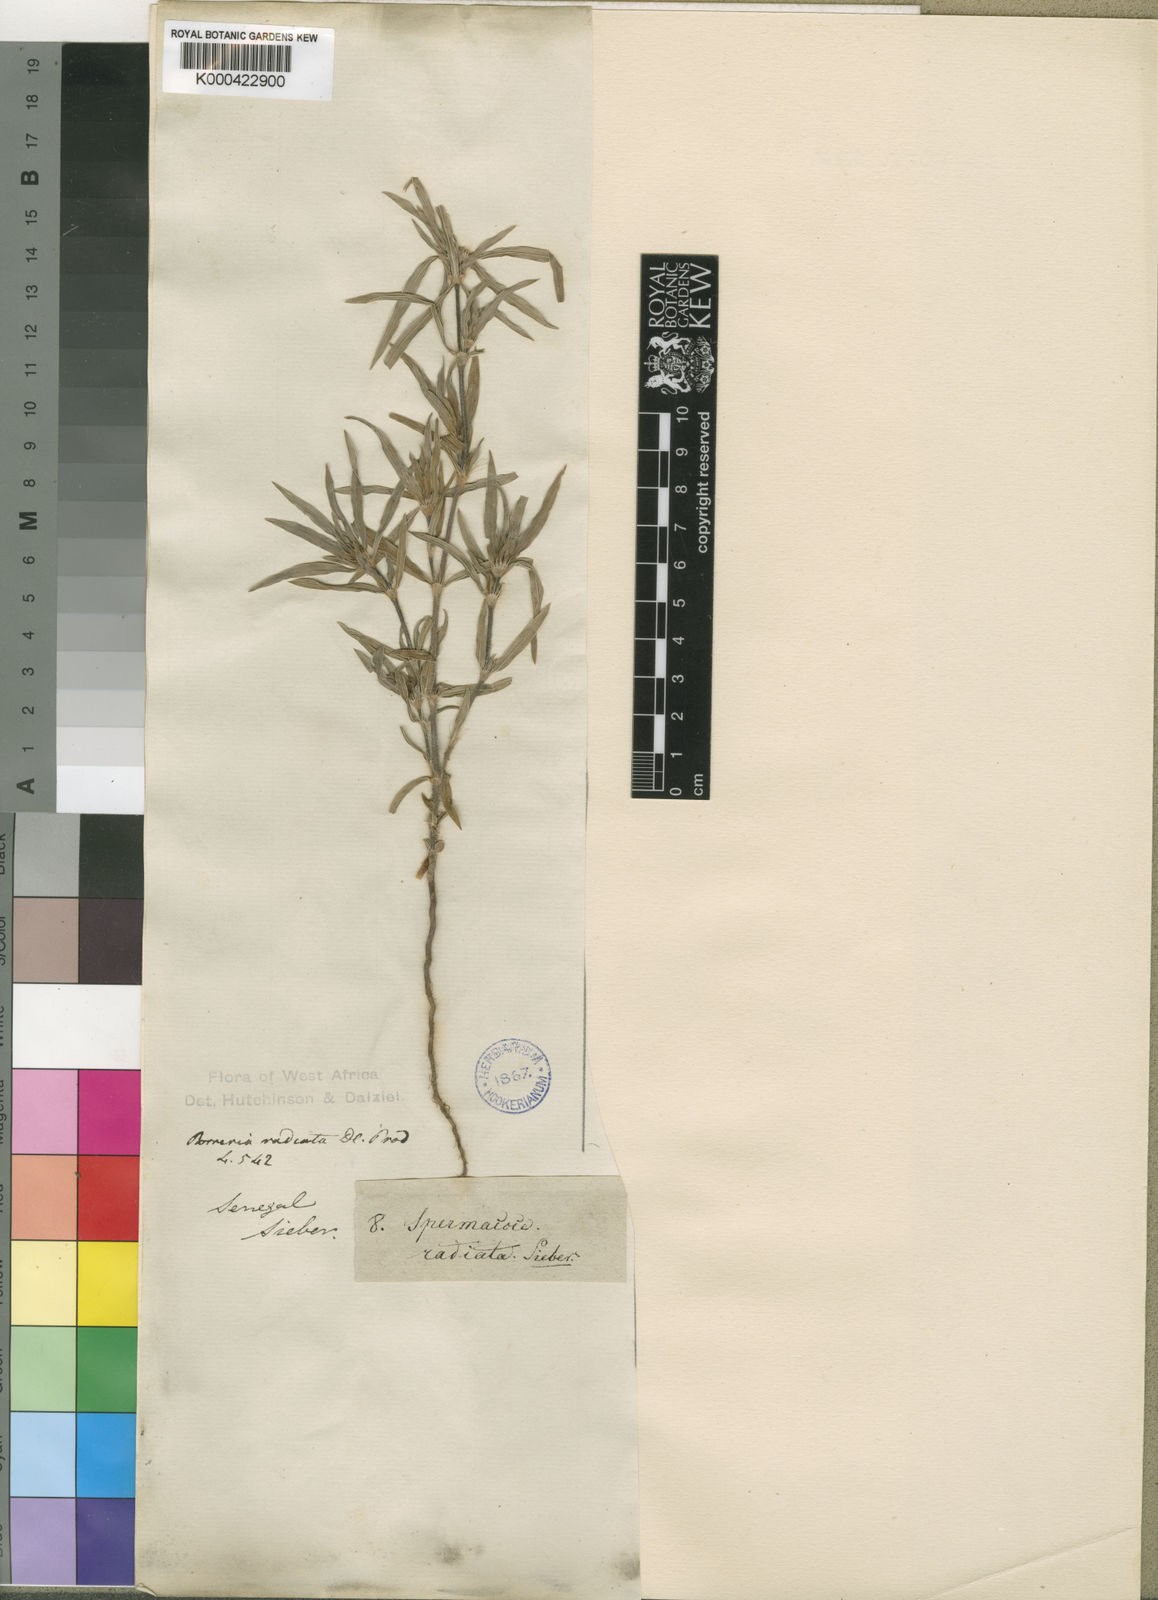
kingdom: Plantae
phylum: Tracheophyta
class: Magnoliopsida
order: Gentianales
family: Rubiaceae
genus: Spermacoce
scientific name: Spermacoce exilis
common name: Pacific false buttonweed
